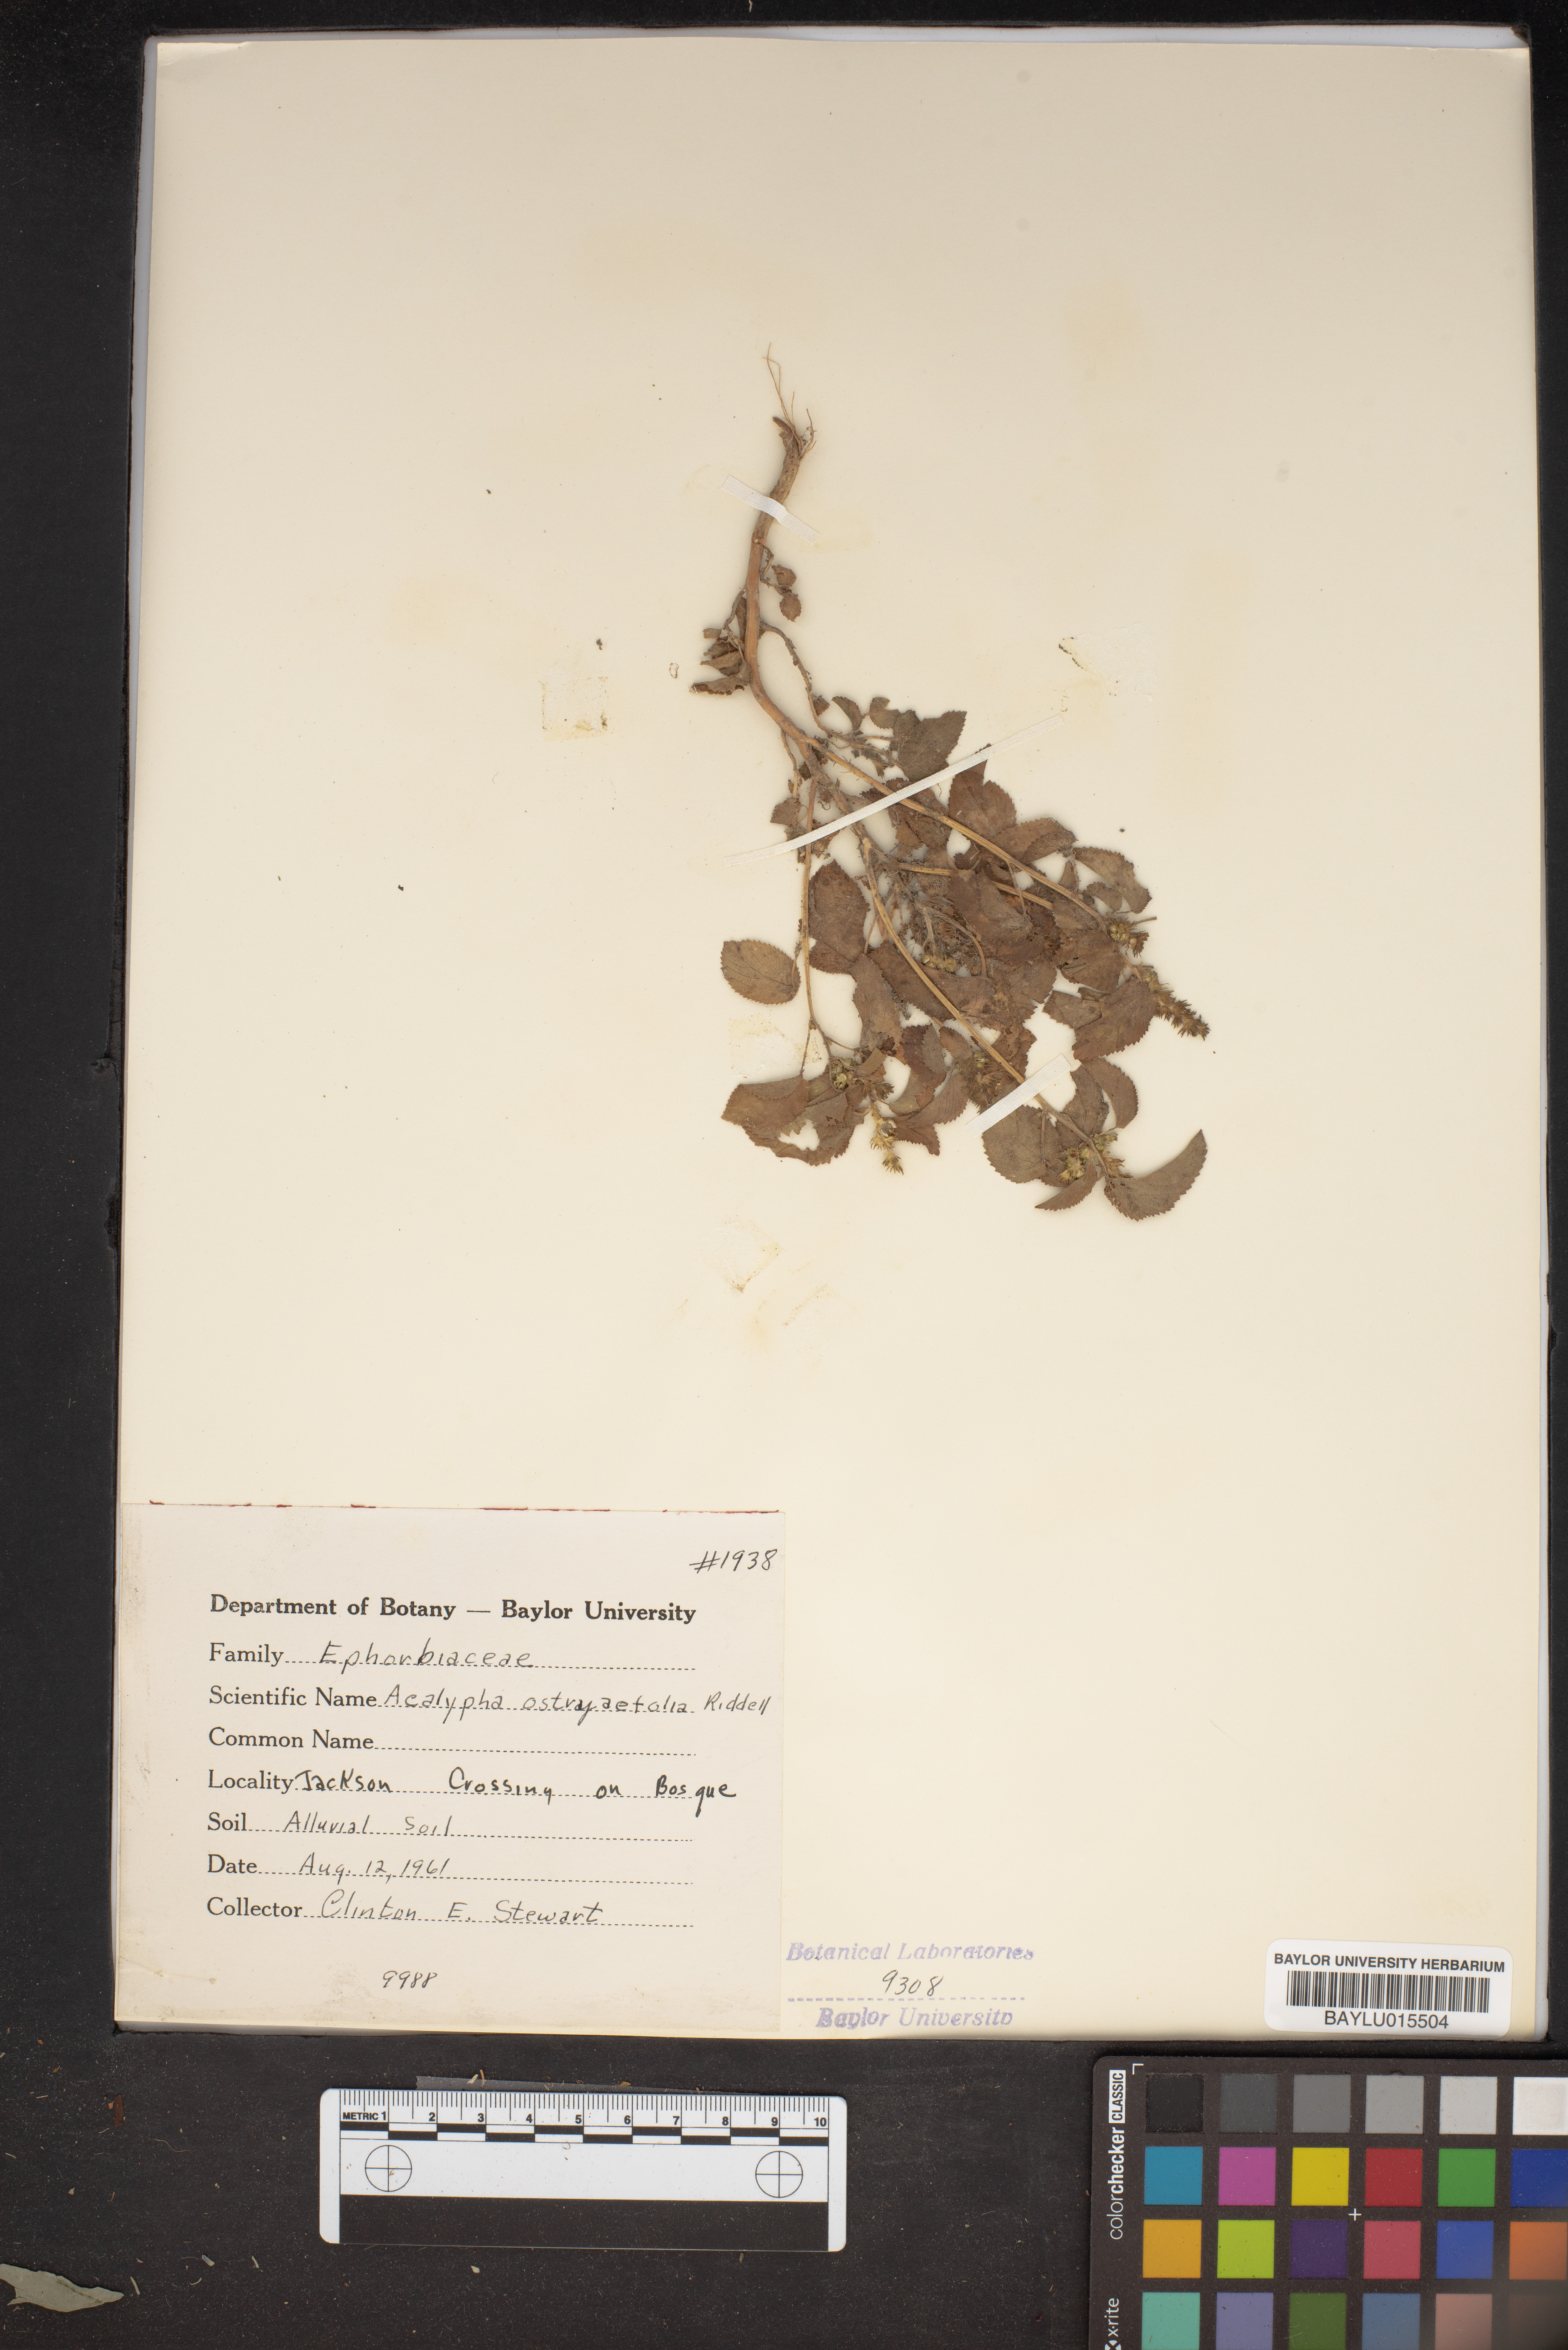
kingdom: Plantae
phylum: Tracheophyta
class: Magnoliopsida
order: Malpighiales
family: Euphorbiaceae
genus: Acalypha
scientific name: Acalypha ostryifolia
